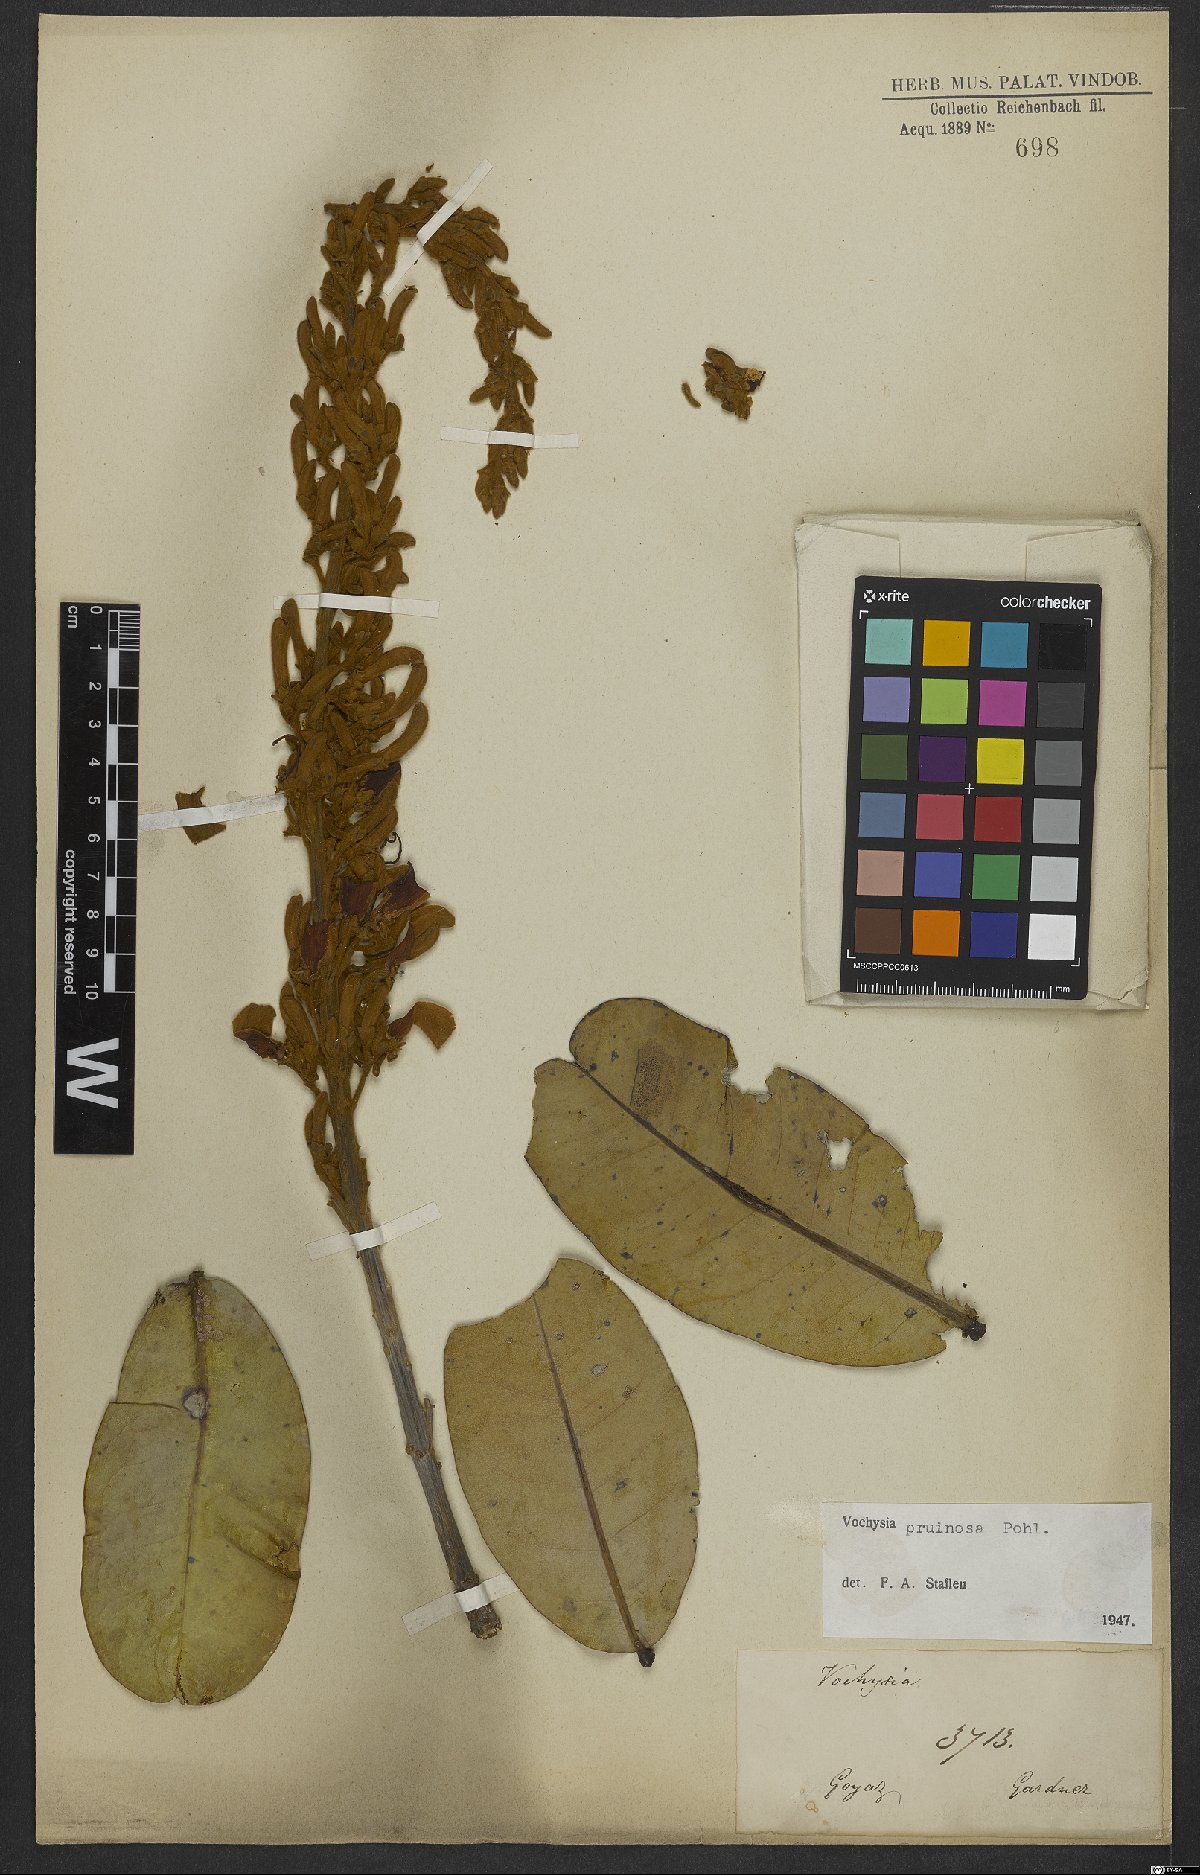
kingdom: Plantae
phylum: Tracheophyta
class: Magnoliopsida
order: Myrtales
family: Vochysiaceae
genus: Vochysia
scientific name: Vochysia pruinosa
